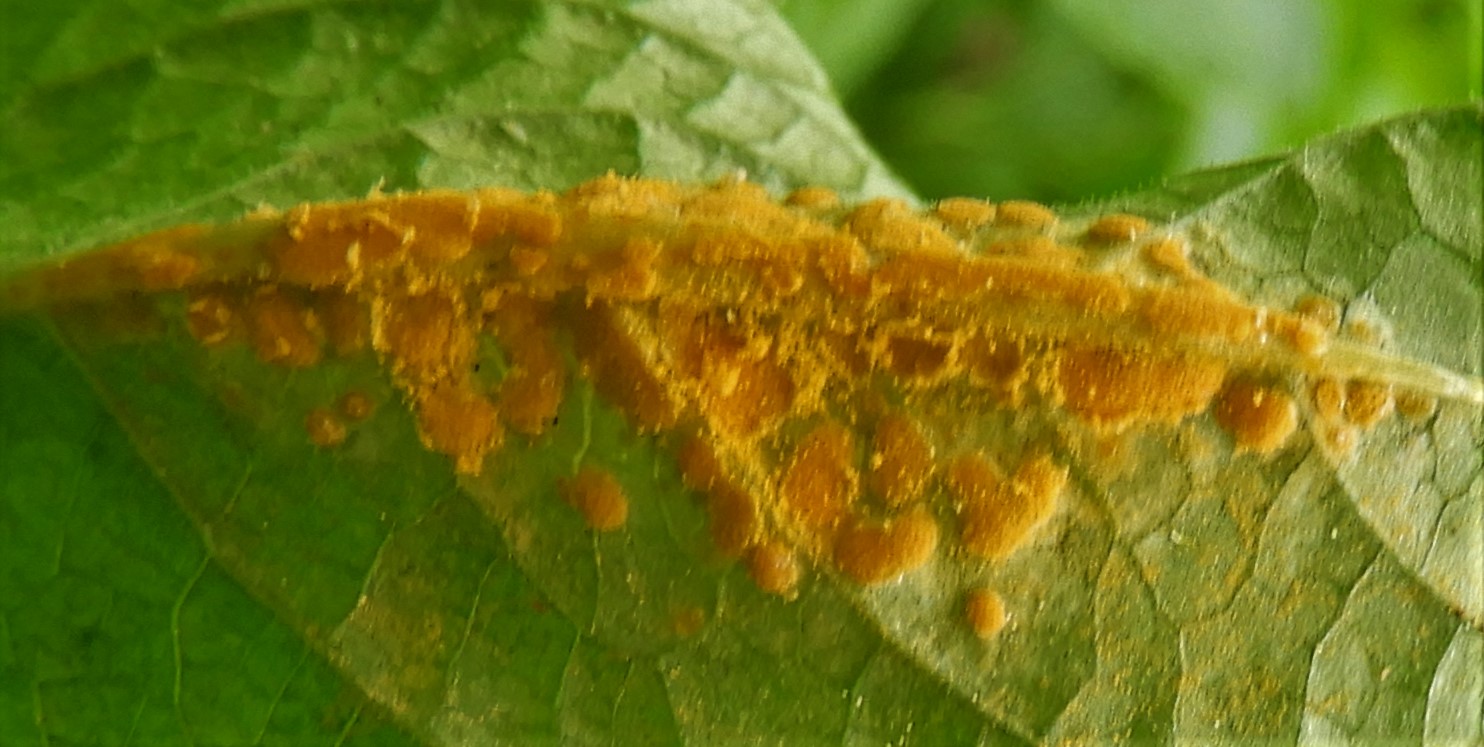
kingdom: Fungi
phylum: Basidiomycota
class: Pucciniomycetes
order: Pucciniales
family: Melampsoraceae
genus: Melampsora
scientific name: Melampsora populnea
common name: poppel-skorperust
